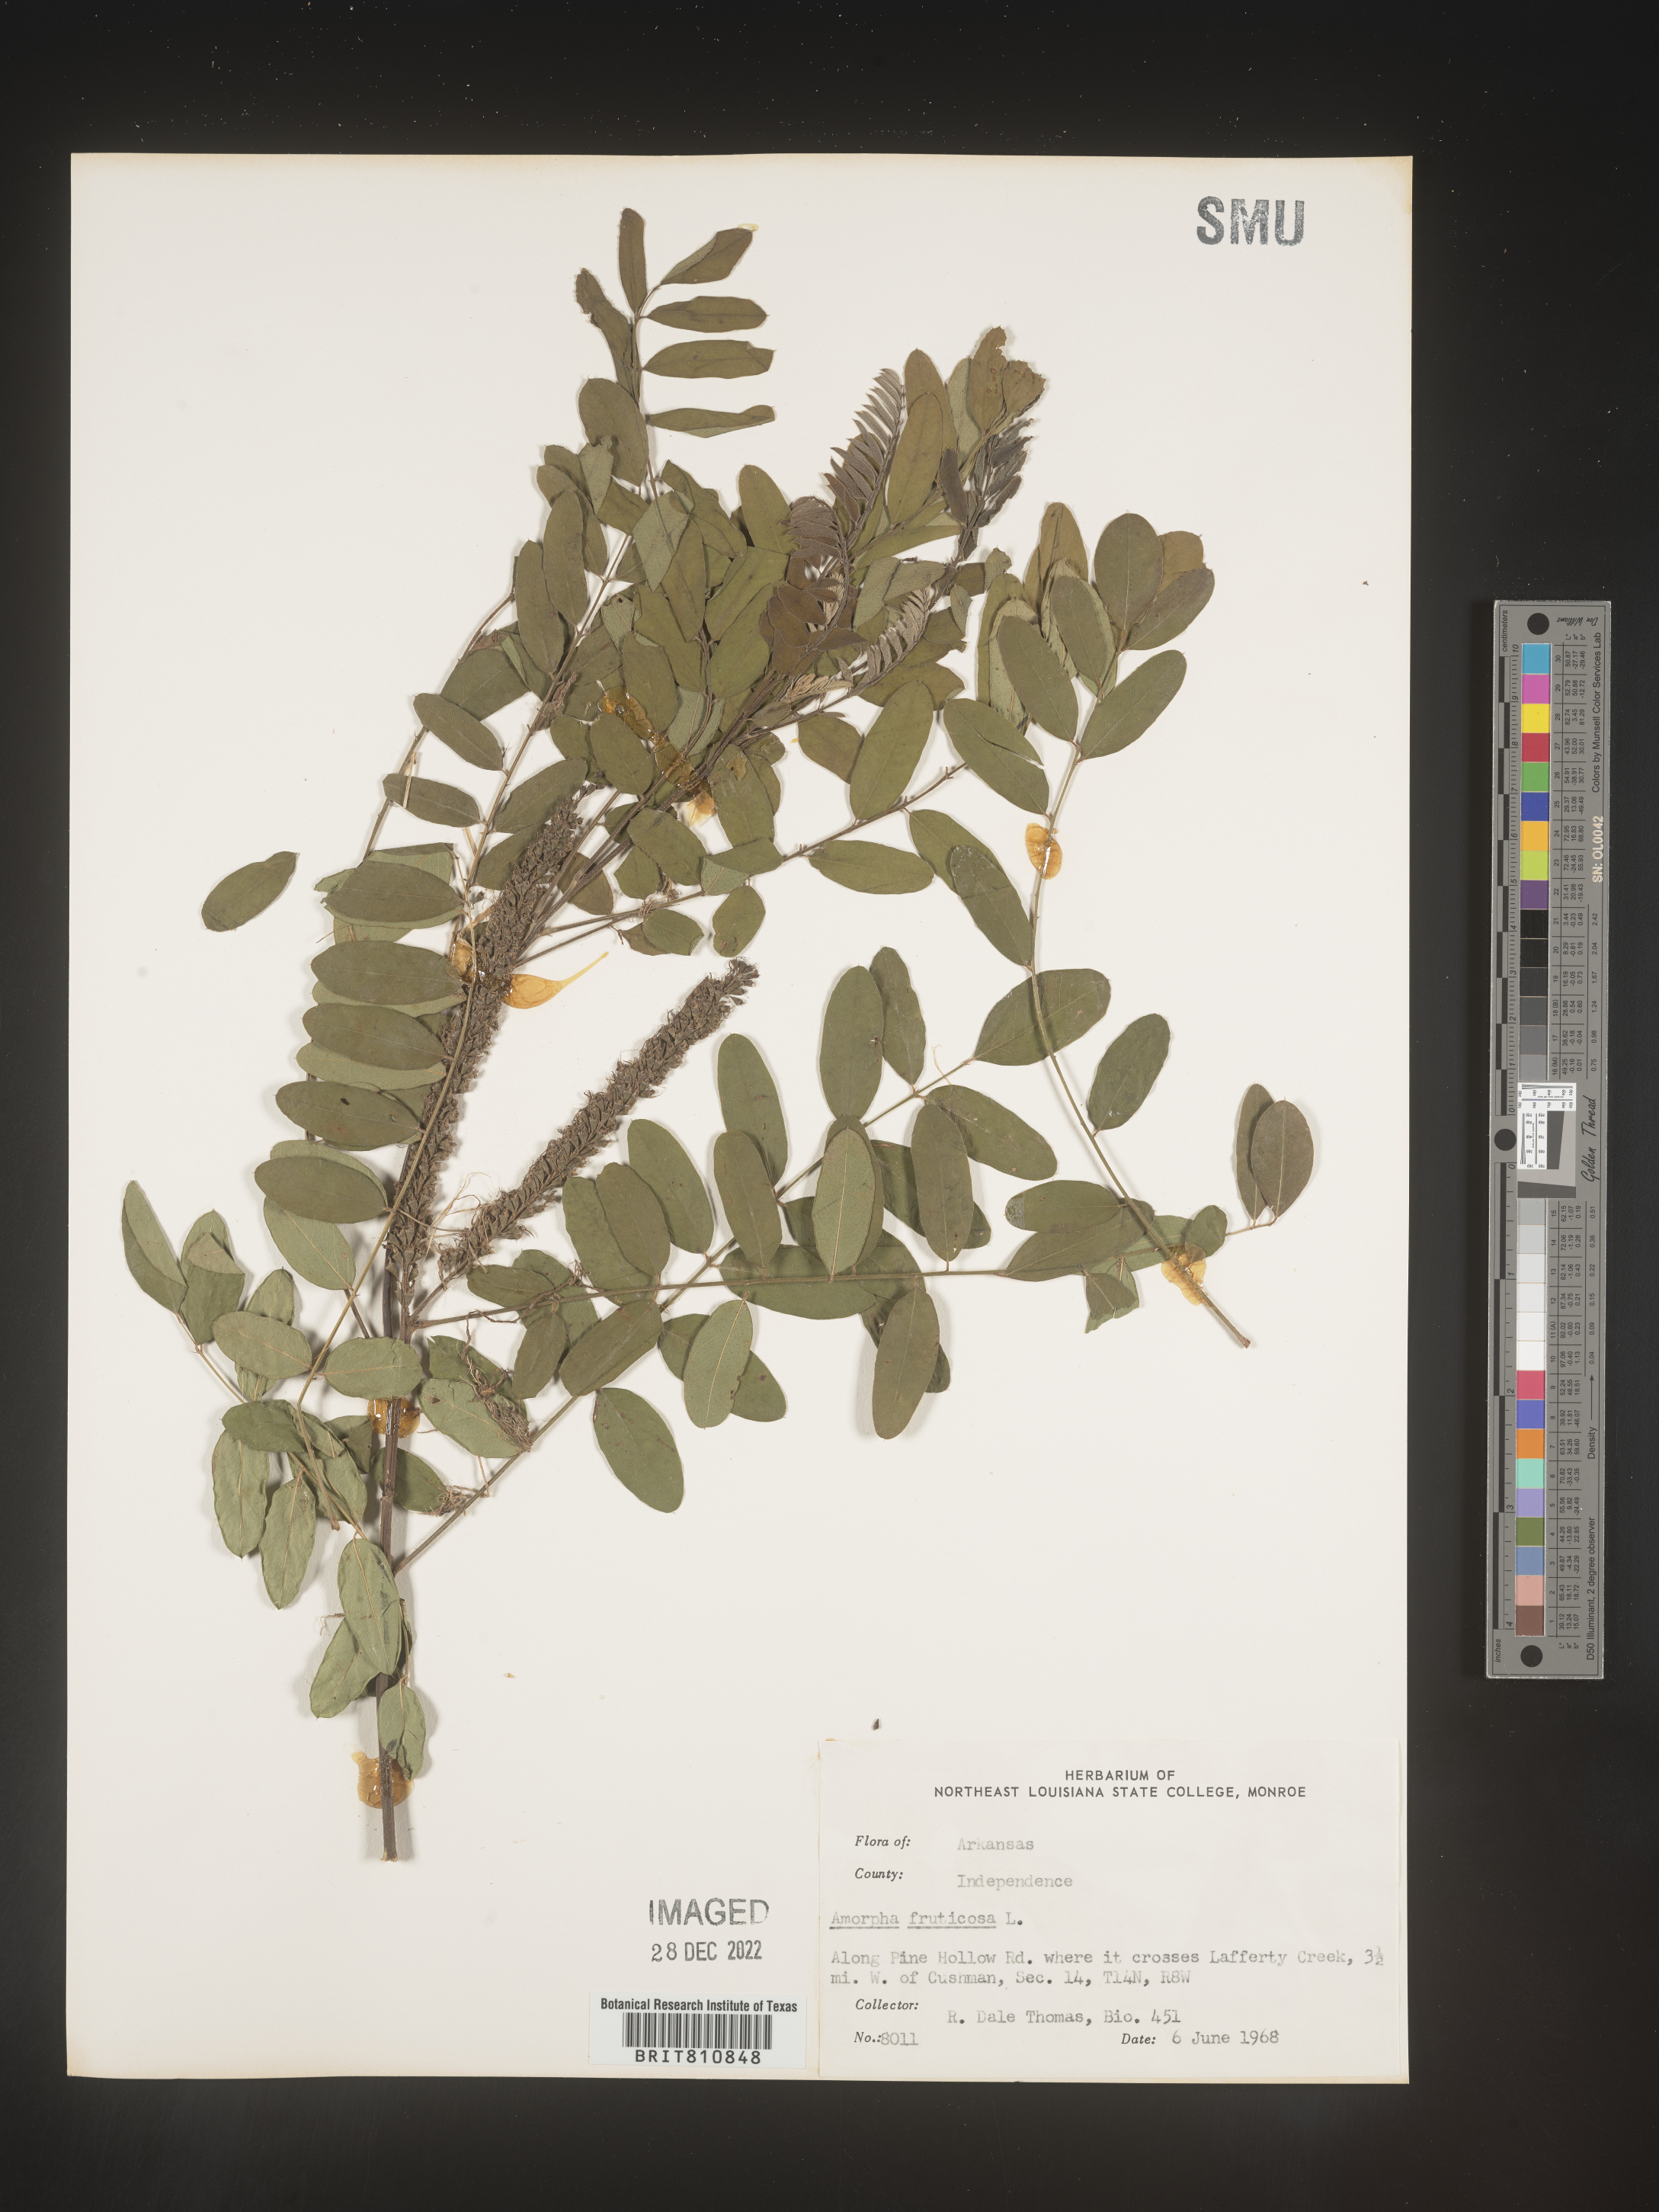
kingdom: Plantae
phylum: Tracheophyta
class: Magnoliopsida
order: Fabales
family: Fabaceae
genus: Amorpha
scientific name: Amorpha fruticosa
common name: False indigo
